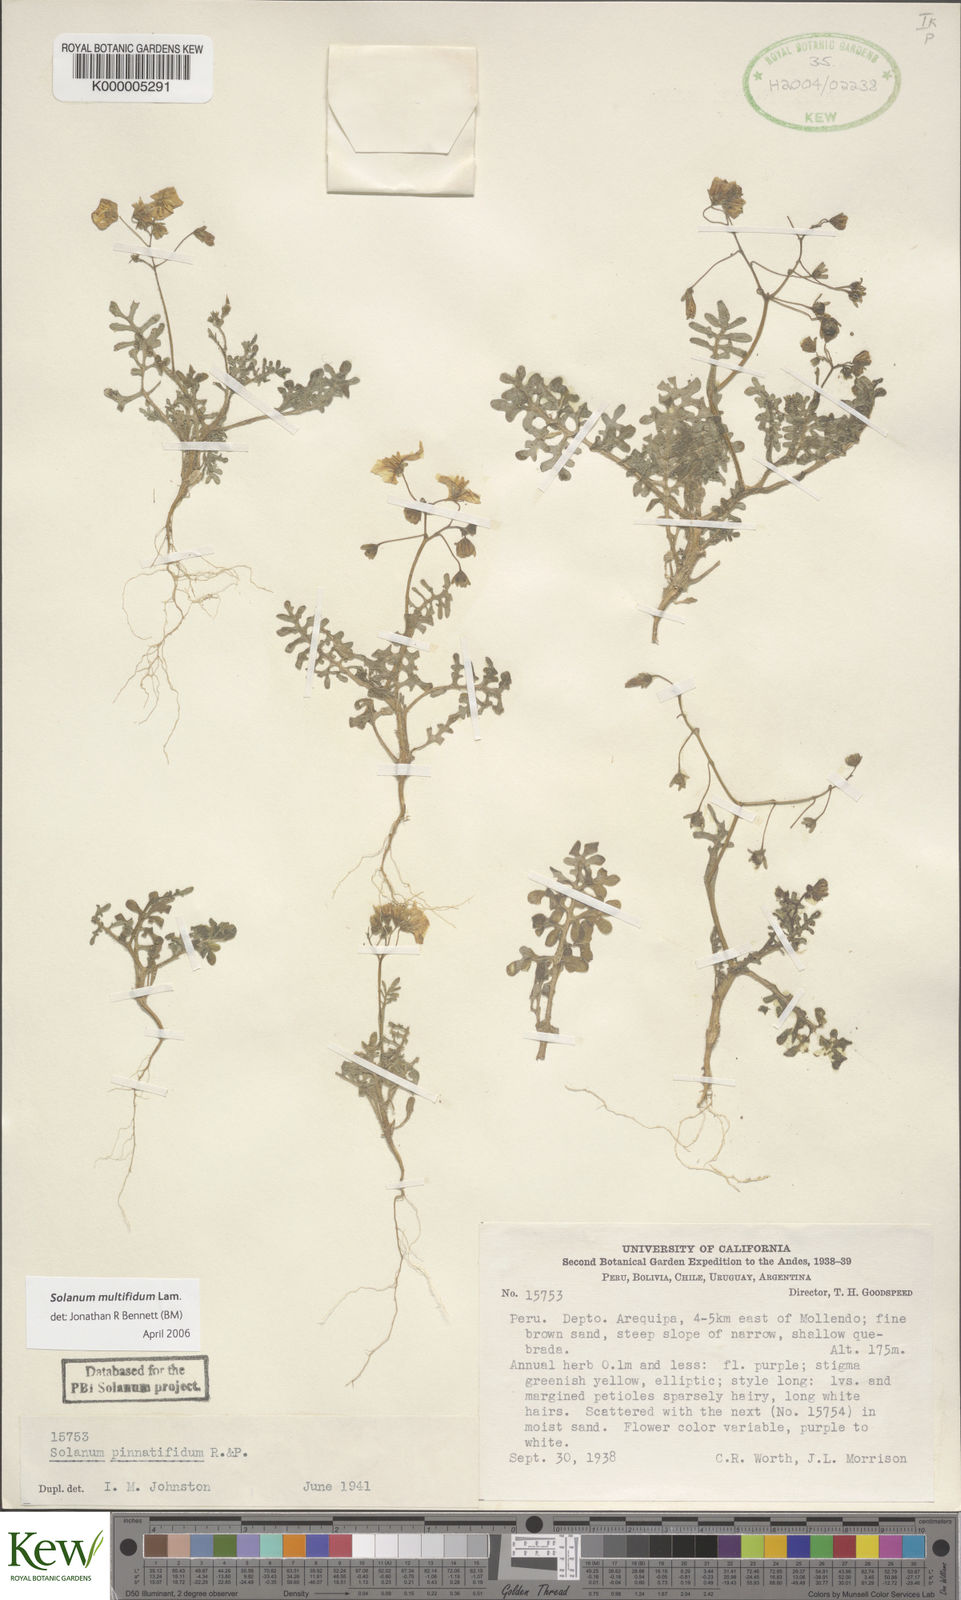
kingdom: Plantae
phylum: Tracheophyta
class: Magnoliopsida
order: Solanales
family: Solanaceae
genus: Solanum
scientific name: Solanum multifidum
